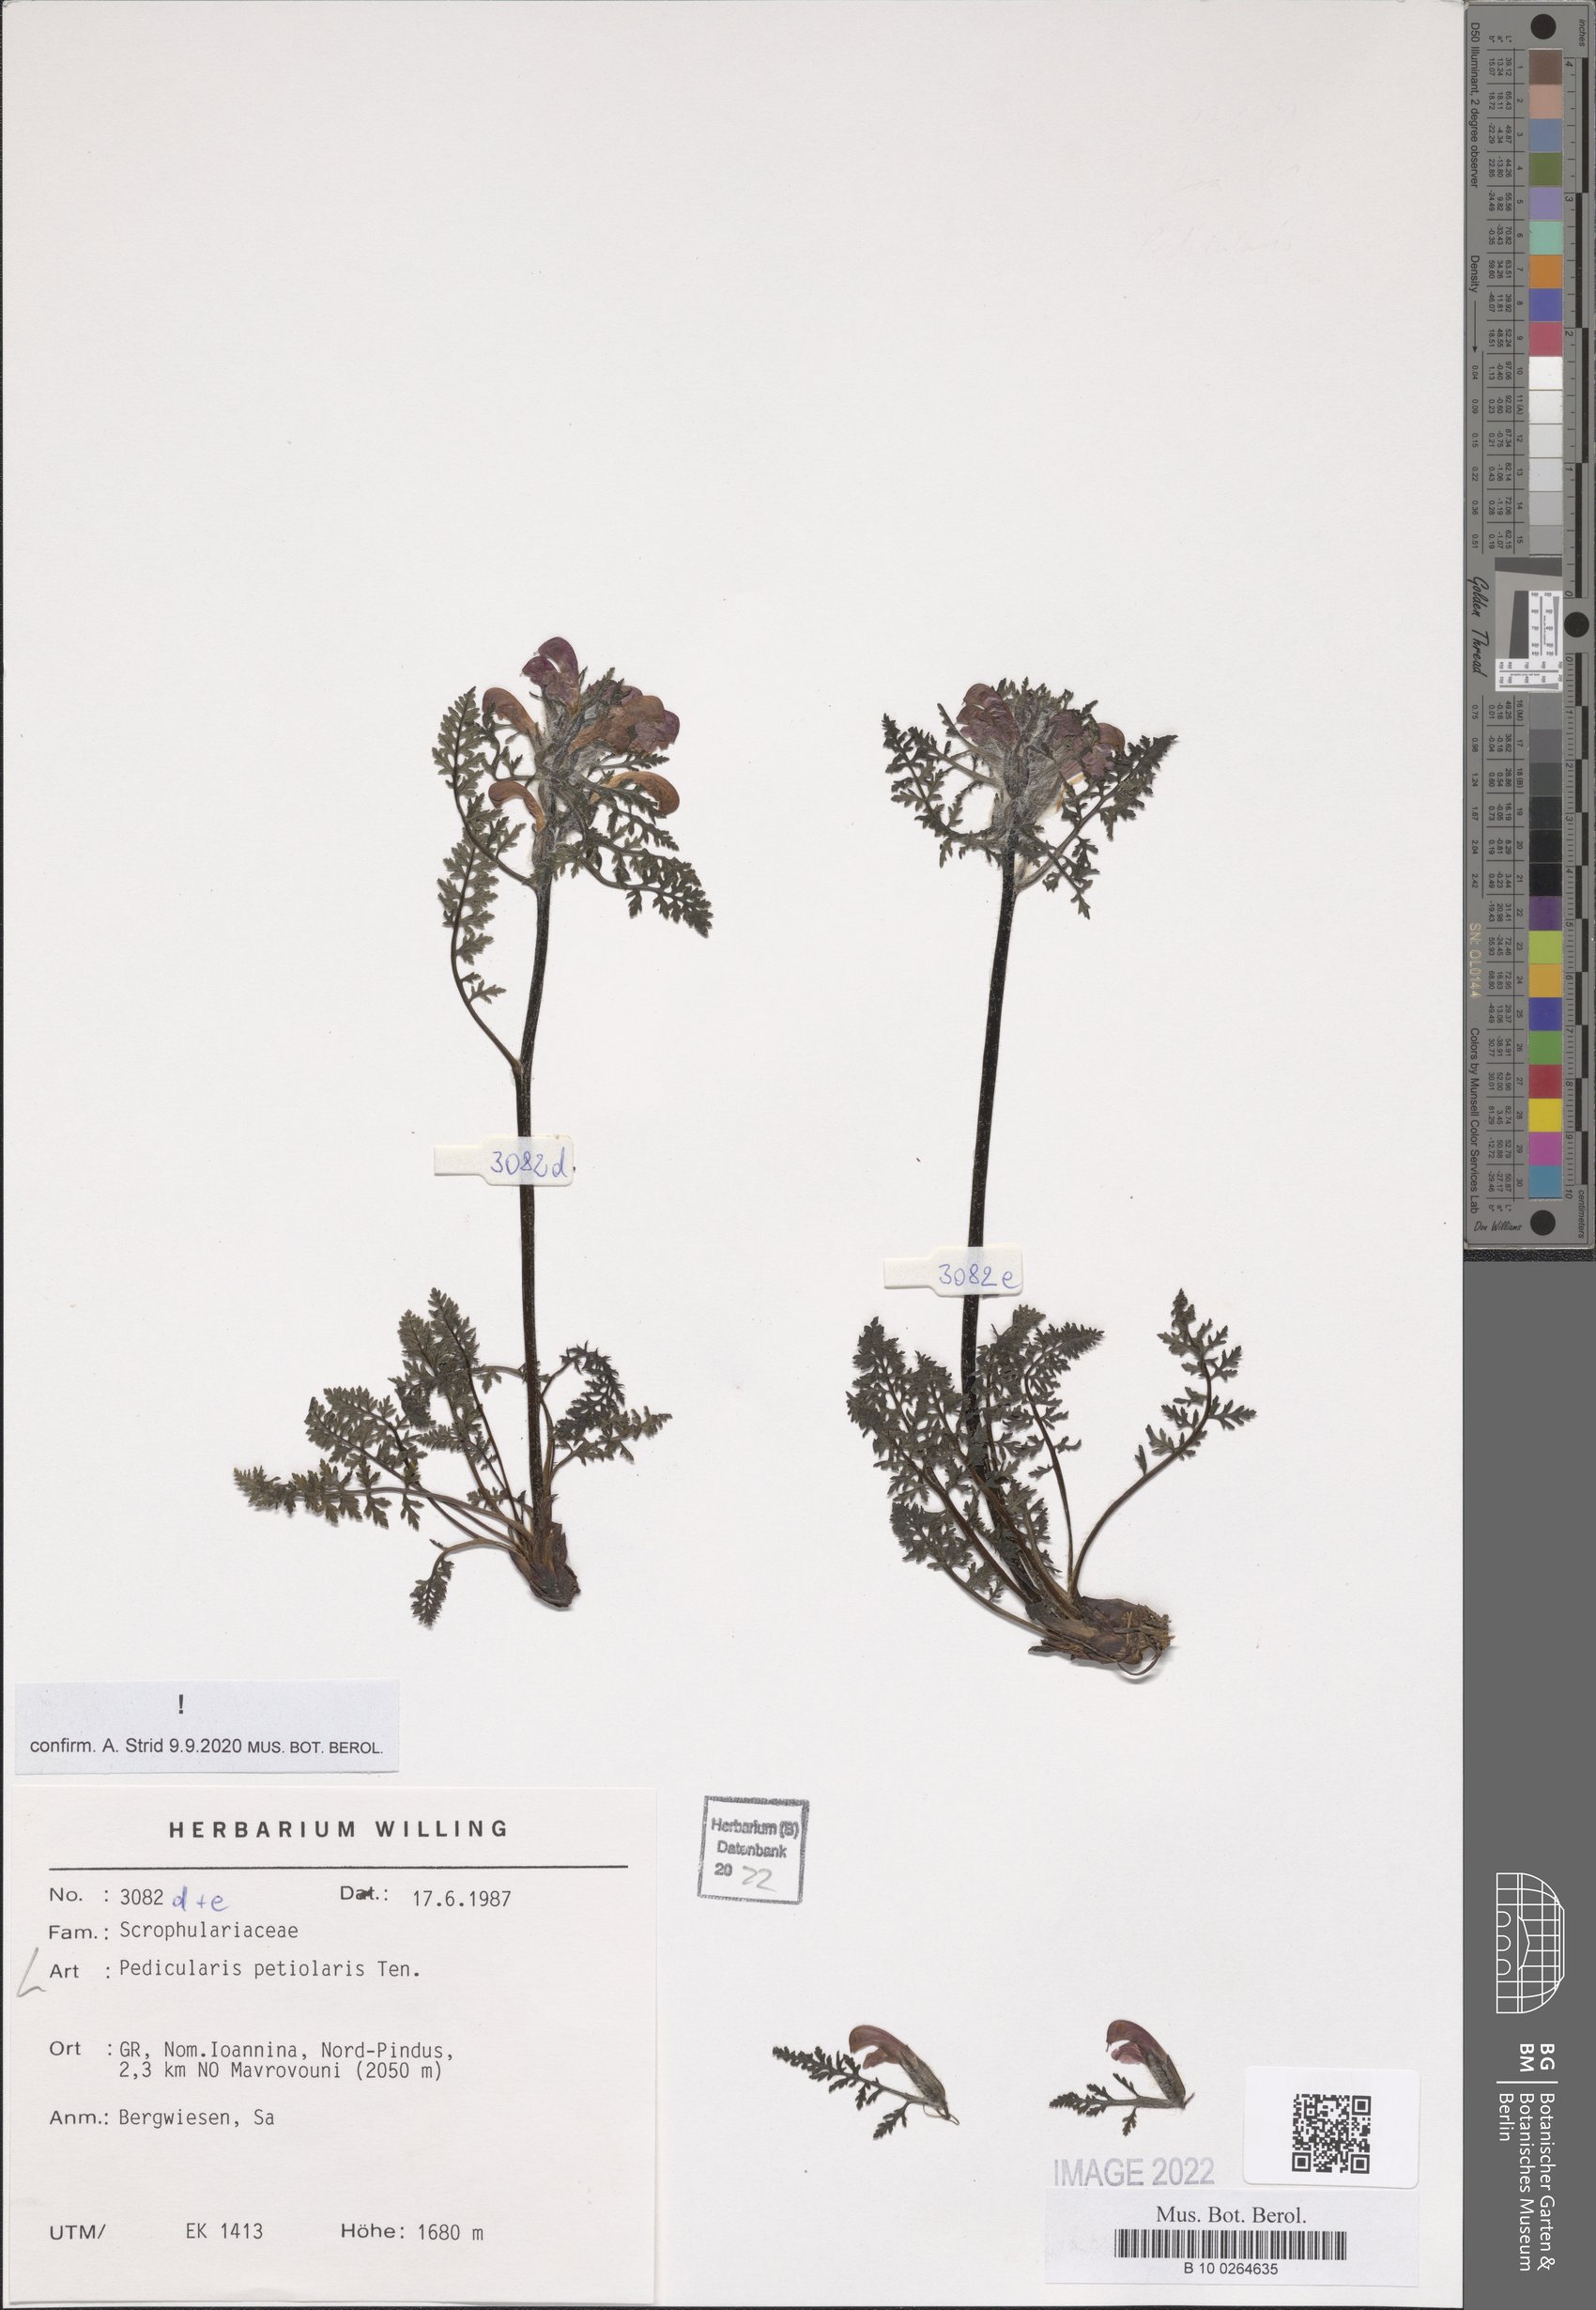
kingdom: Plantae
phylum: Tracheophyta
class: Magnoliopsida
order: Lamiales
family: Orobanchaceae
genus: Pedicularis
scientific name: Pedicularis petiolaris
